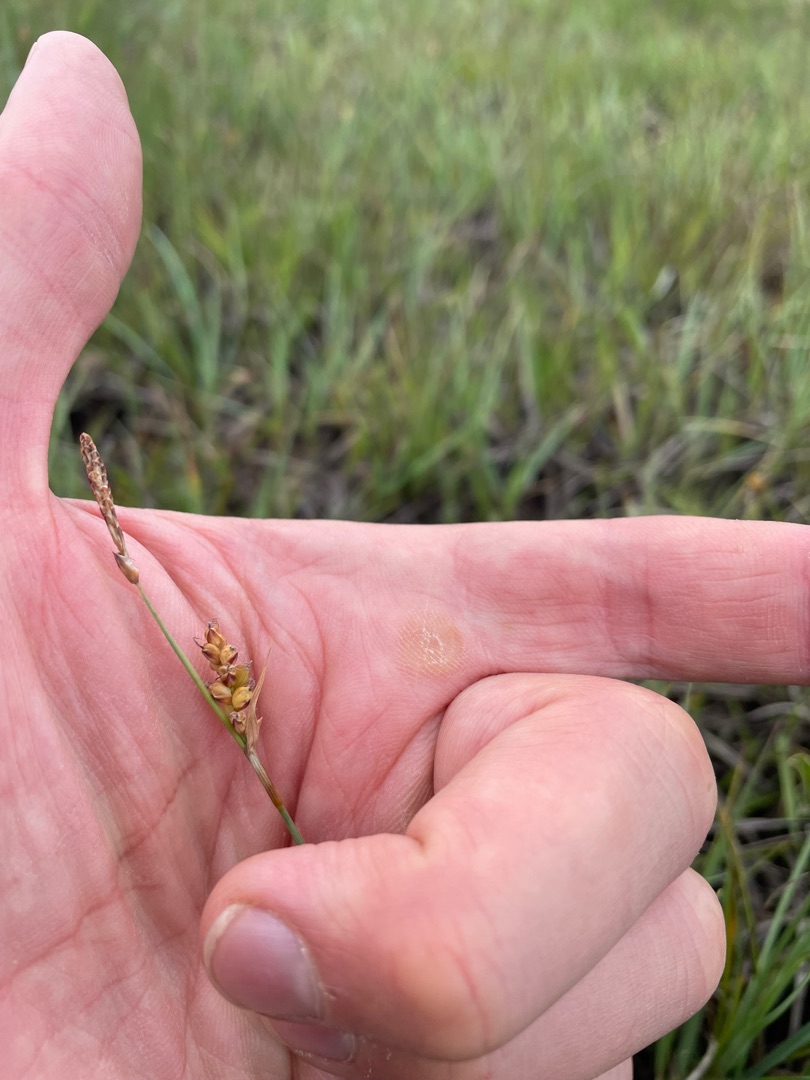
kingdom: Plantae
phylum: Tracheophyta
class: Liliopsida
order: Poales
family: Cyperaceae
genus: Carex
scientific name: Carex panicea
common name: Hirse-star
